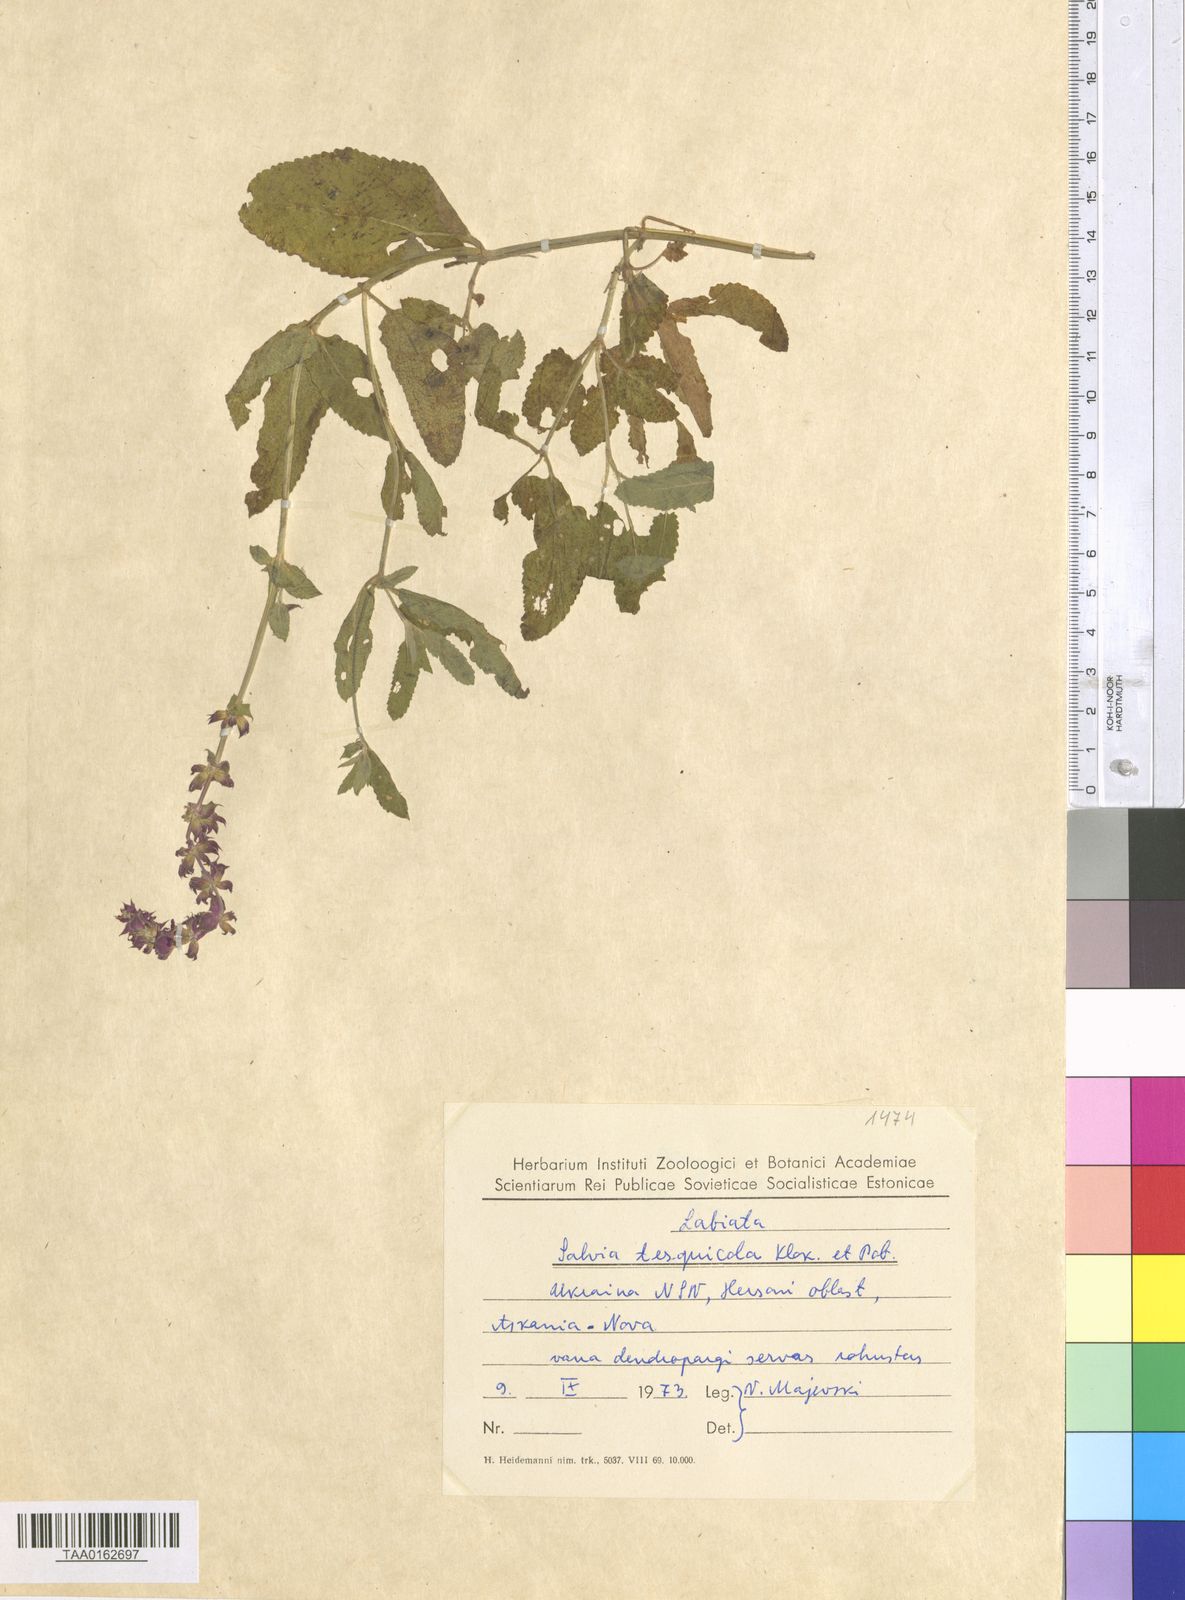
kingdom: Plantae
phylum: Tracheophyta
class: Magnoliopsida
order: Lamiales
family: Lamiaceae
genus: Salvia
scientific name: Salvia nemorosa
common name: Balkan clary
